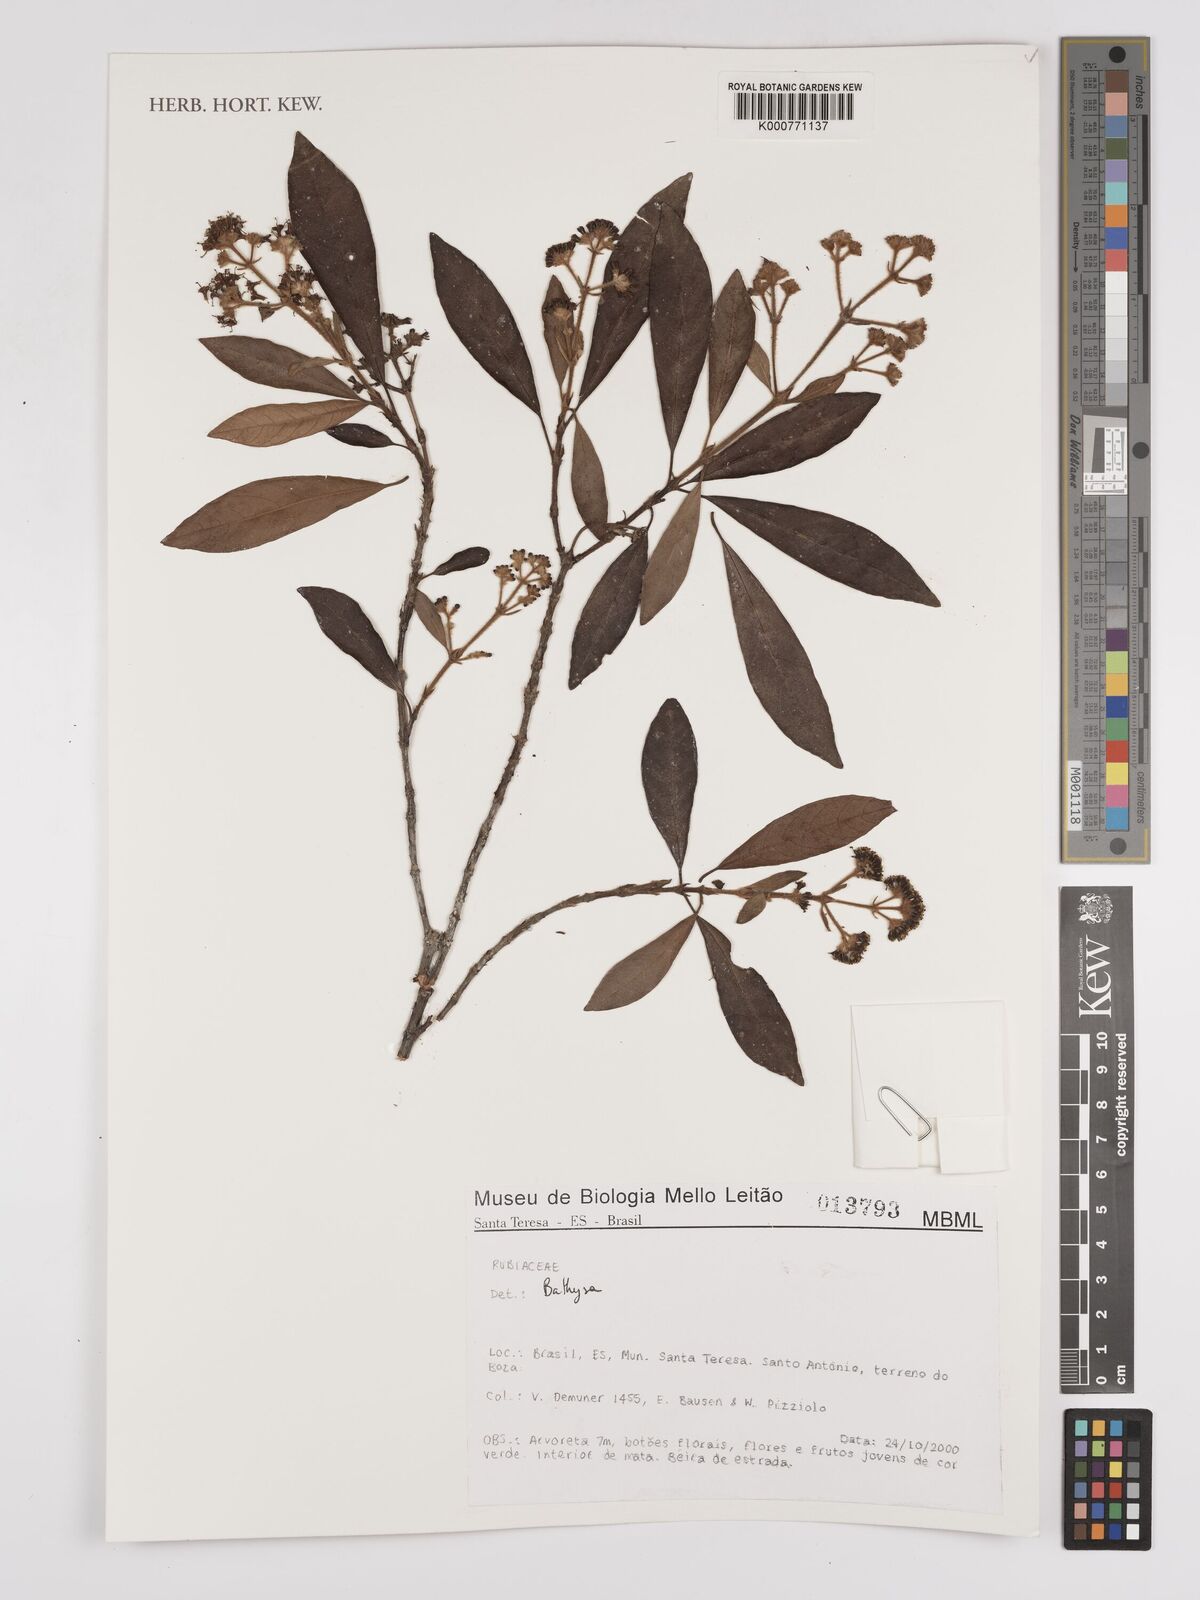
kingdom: Plantae
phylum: Tracheophyta
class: Magnoliopsida
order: Gentianales
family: Rubiaceae
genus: Bathysa
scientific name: Bathysa
